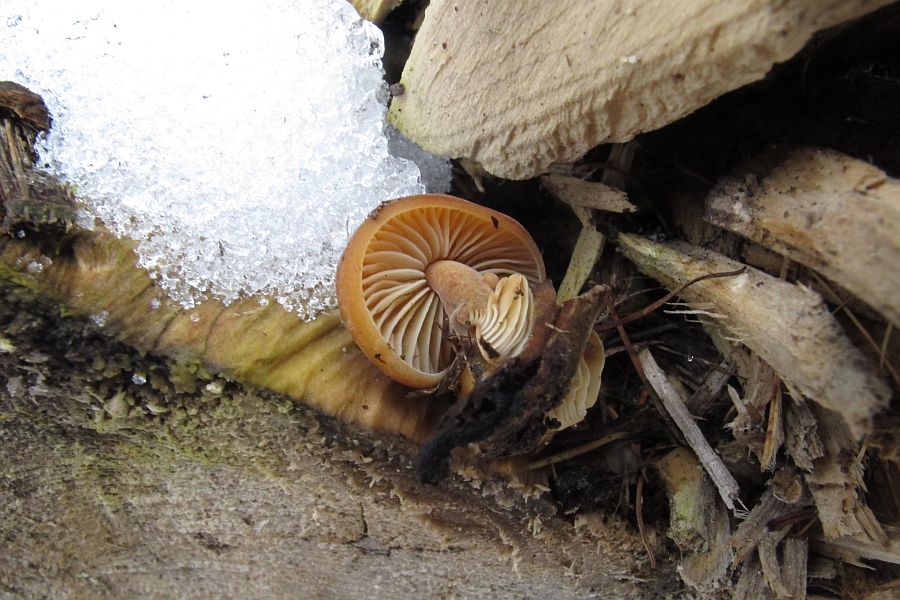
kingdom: Fungi
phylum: Basidiomycota
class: Agaricomycetes
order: Agaricales
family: Physalacriaceae
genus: Flammulina
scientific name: Flammulina velutipes
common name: gul fløjlsfod
